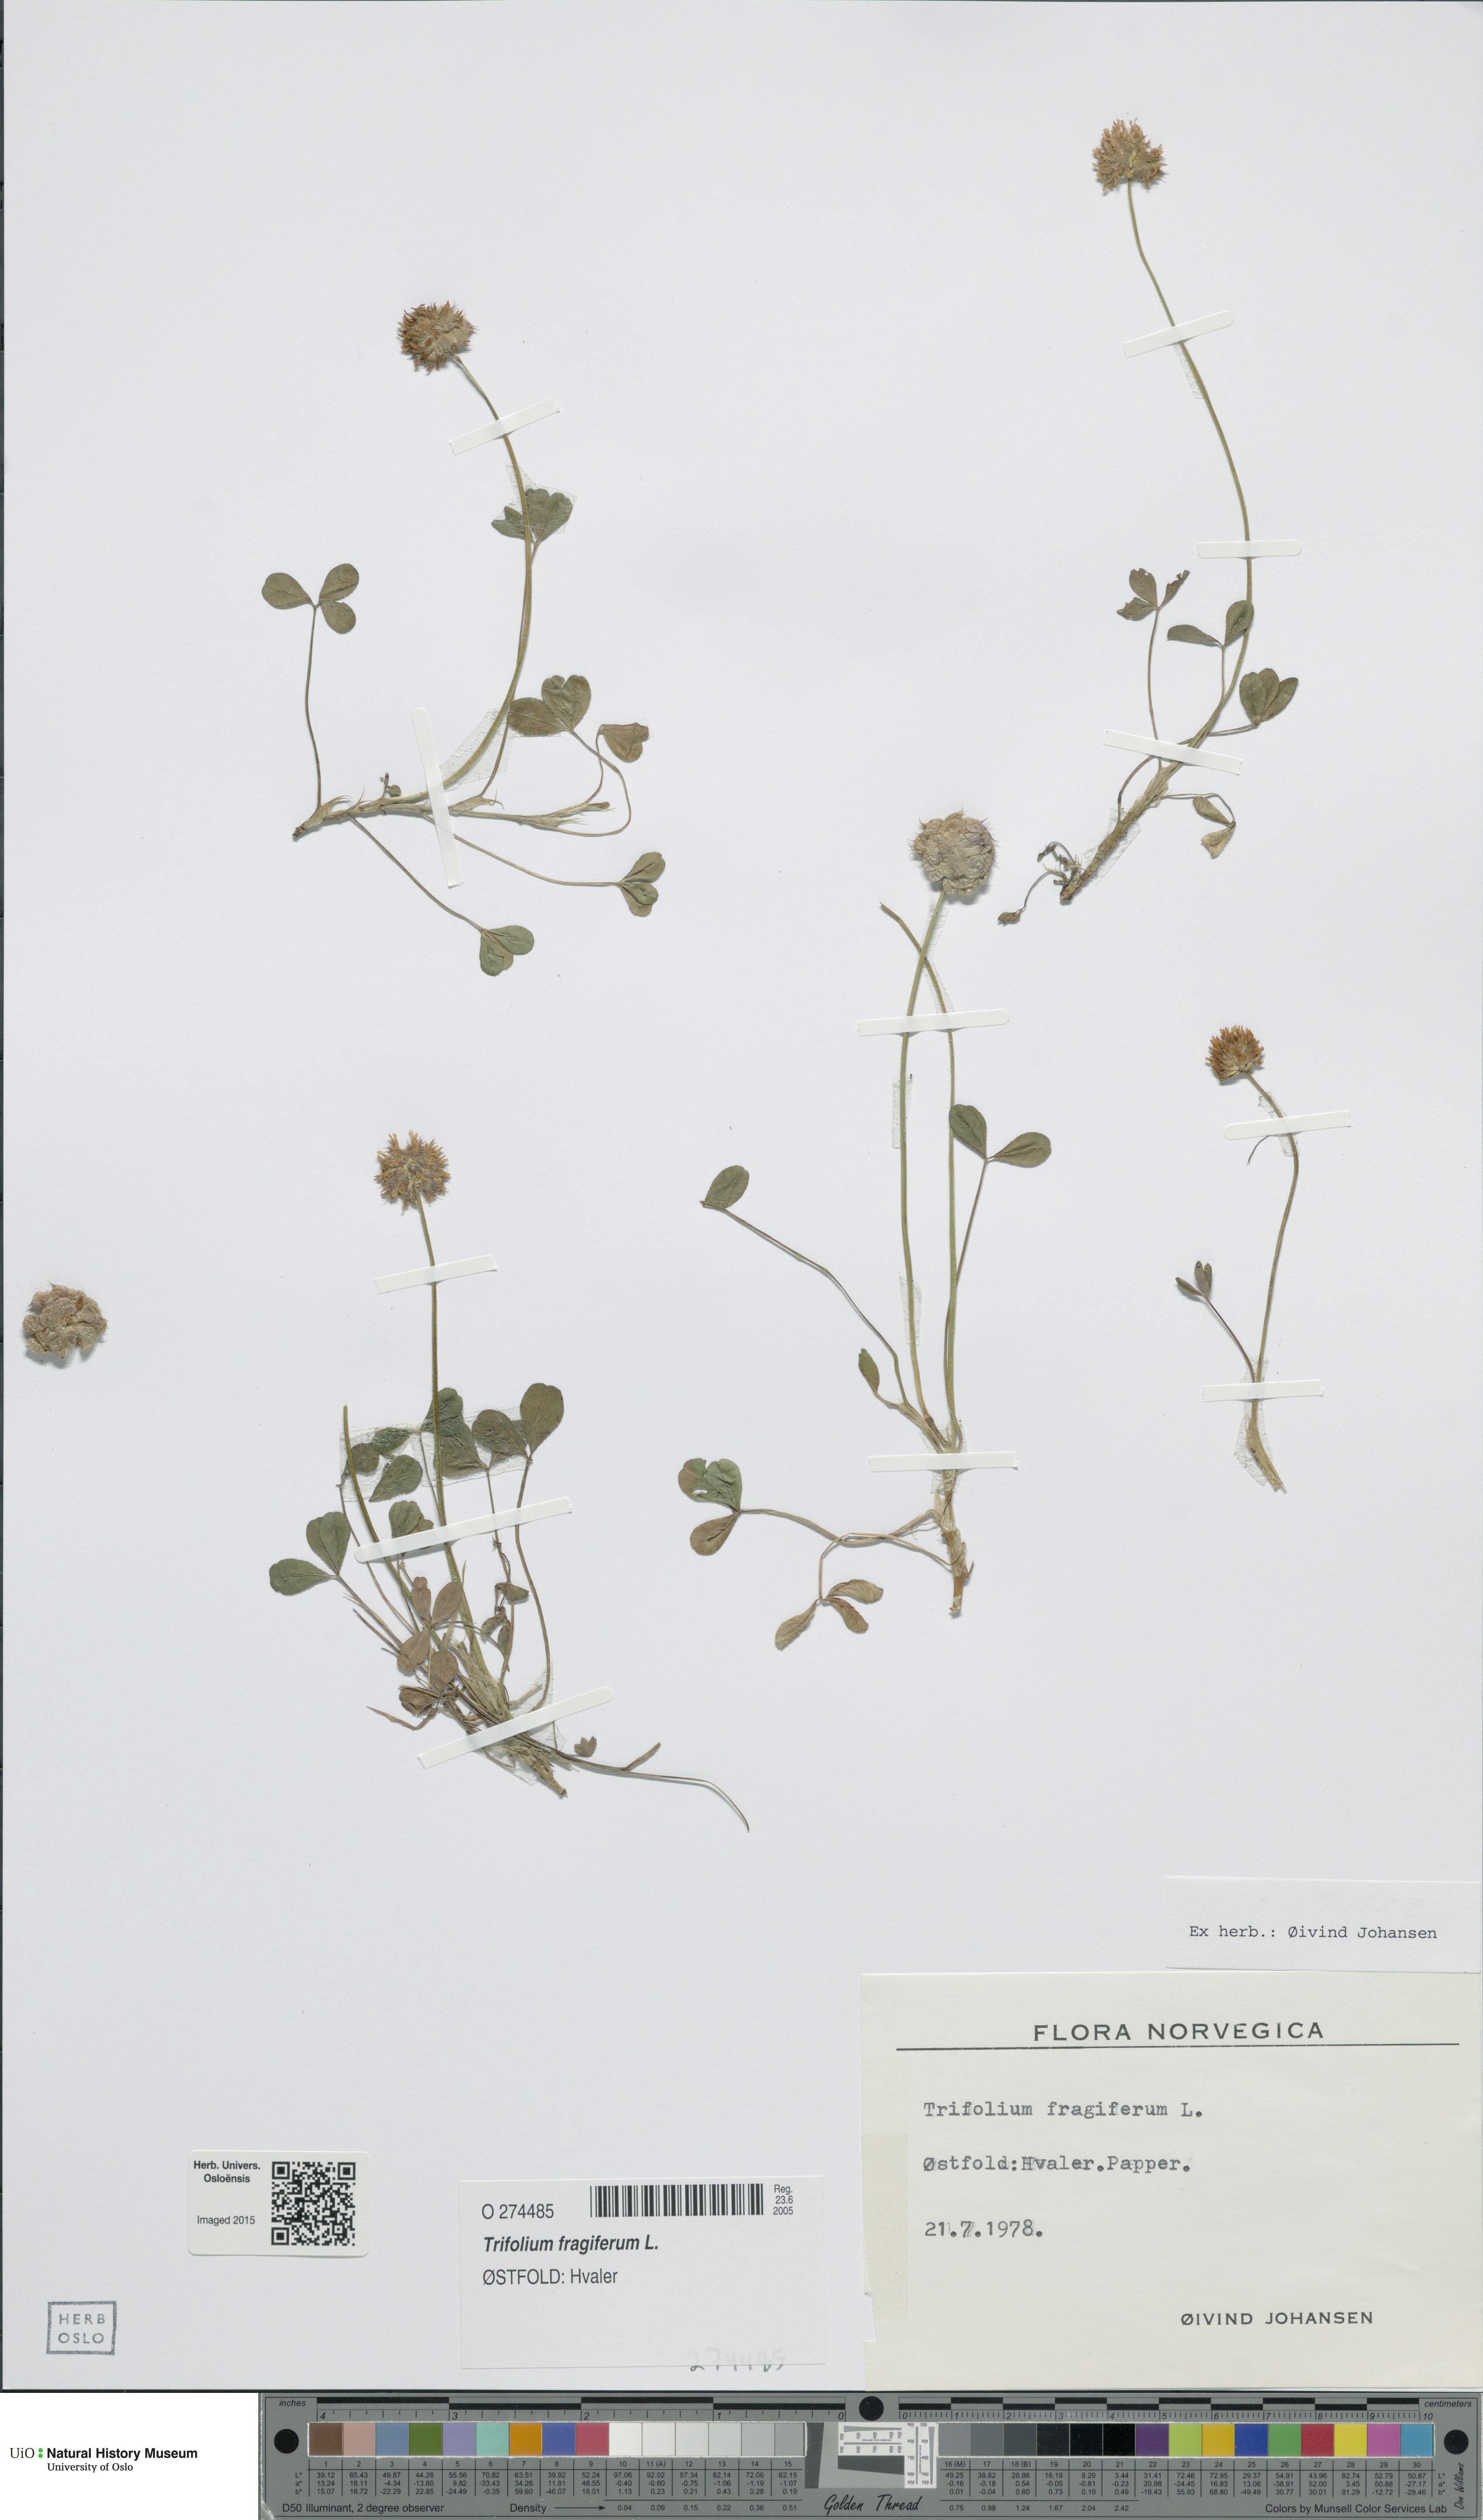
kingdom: Plantae
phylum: Tracheophyta
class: Magnoliopsida
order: Fabales
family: Fabaceae
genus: Trifolium
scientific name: Trifolium fragiferum
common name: Strawberry clover
